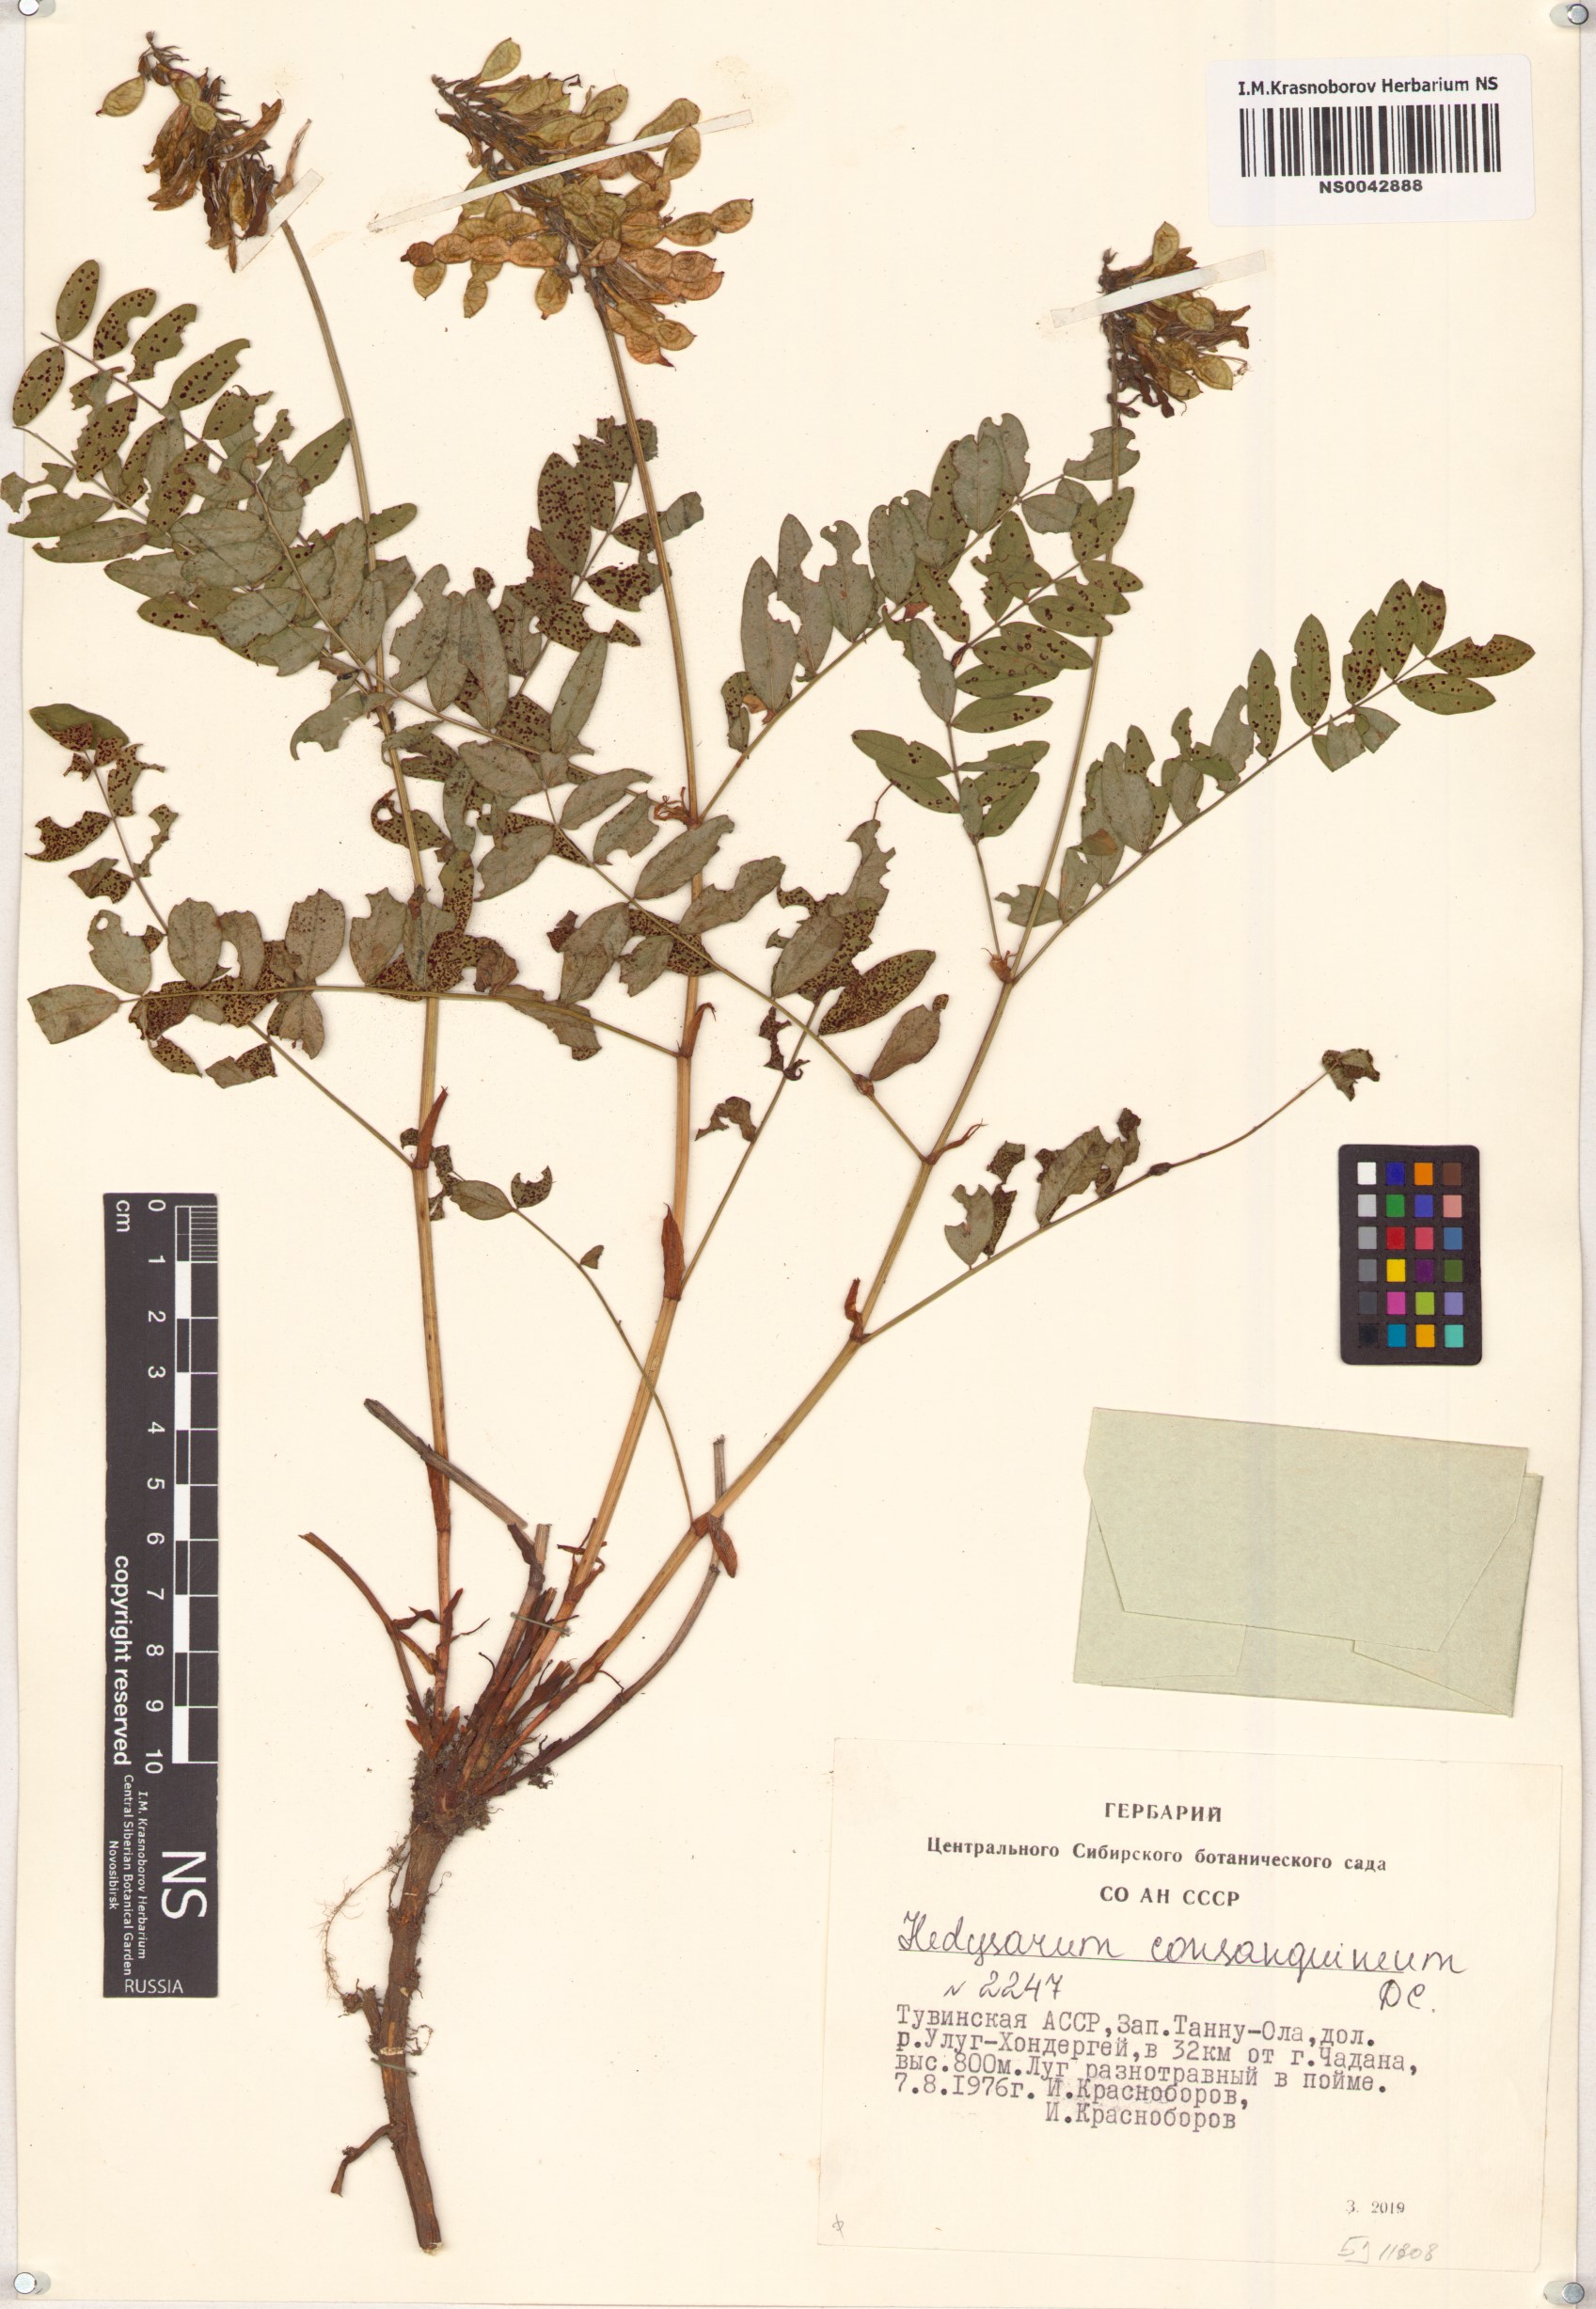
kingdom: Plantae
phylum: Tracheophyta
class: Magnoliopsida
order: Fabales
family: Fabaceae
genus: Hedysarum
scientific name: Hedysarum consanguineum
